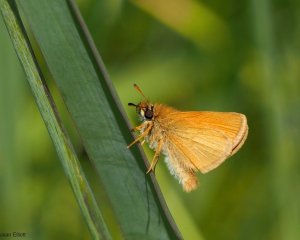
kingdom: Animalia
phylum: Arthropoda
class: Insecta
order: Lepidoptera
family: Hesperiidae
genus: Ancyloxypha
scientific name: Ancyloxypha numitor
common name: Least Skipper
